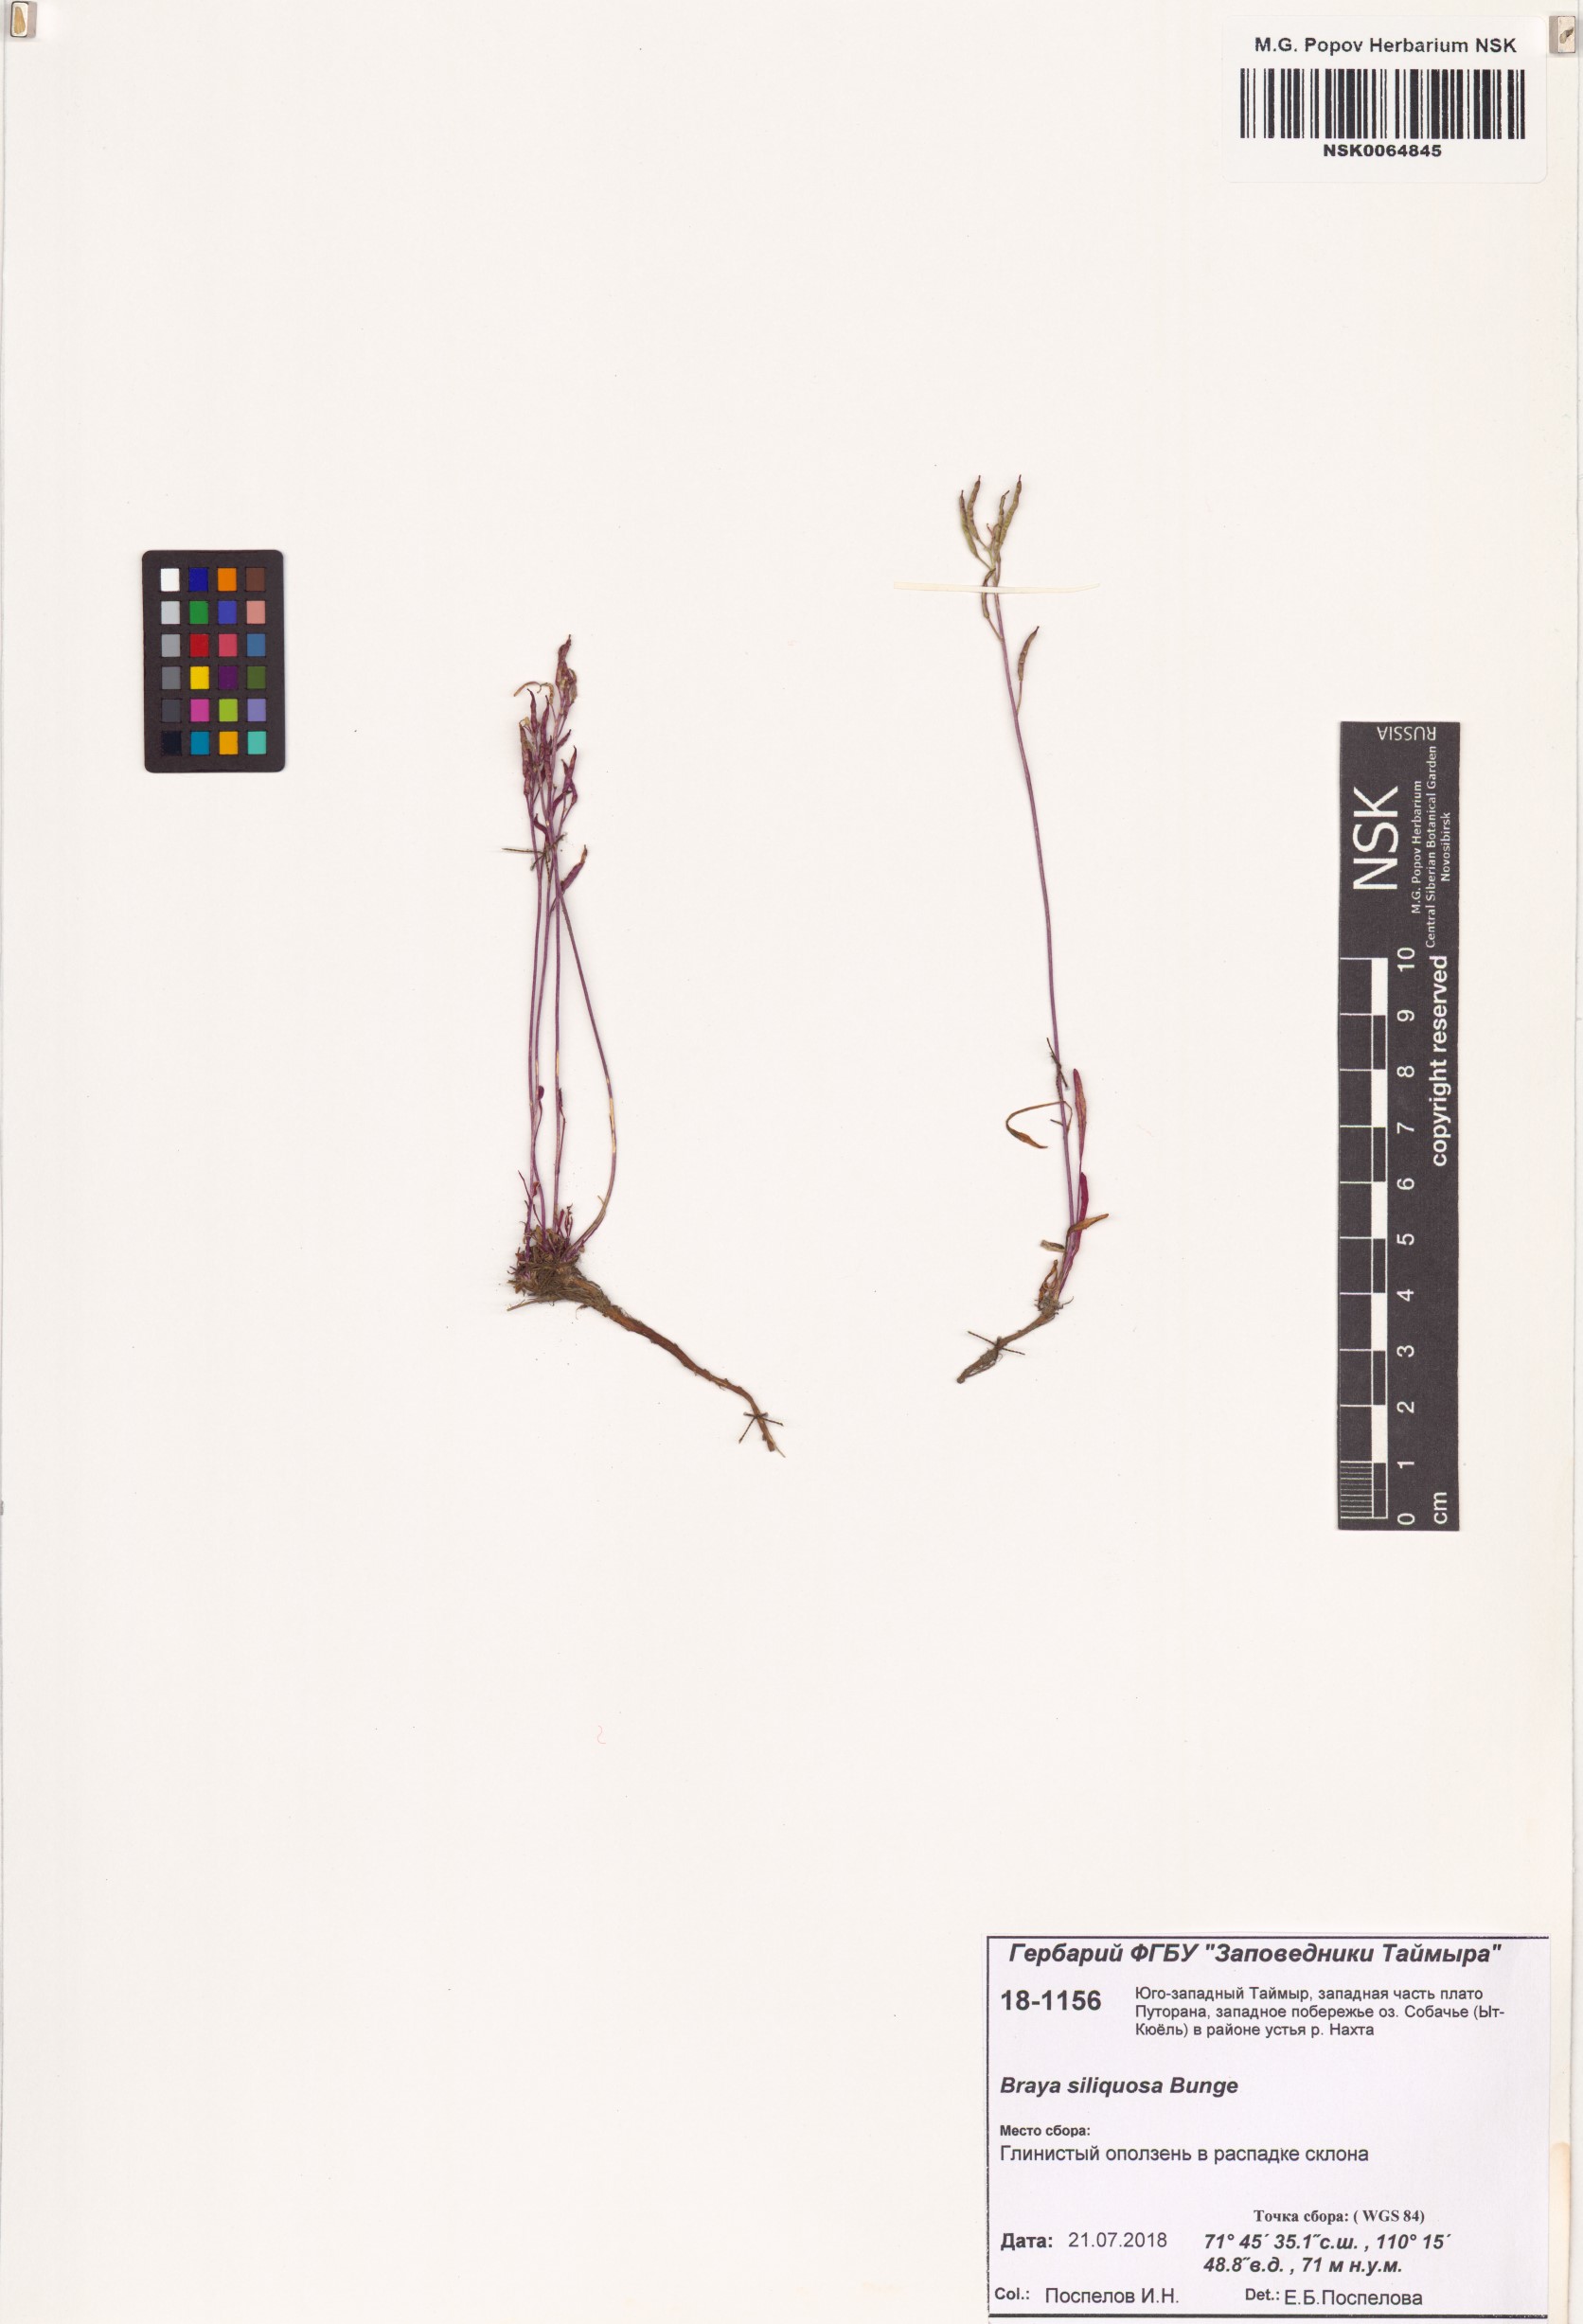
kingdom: Plantae
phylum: Tracheophyta
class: Magnoliopsida
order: Brassicales
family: Brassicaceae
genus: Braya
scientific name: Braya siliquosa
